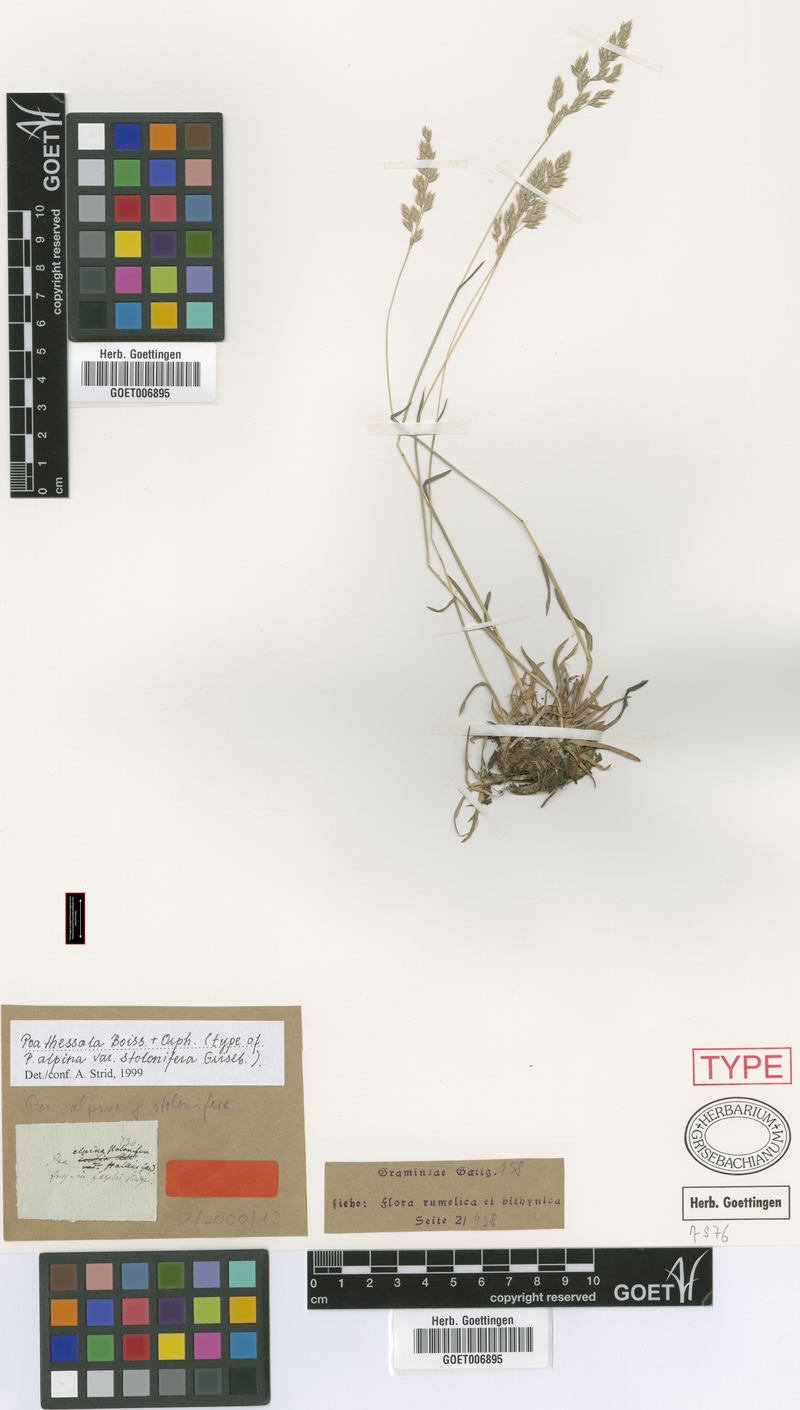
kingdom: Plantae
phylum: Tracheophyta
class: Liliopsida
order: Poales
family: Poaceae
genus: Poa
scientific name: Poa thessala
